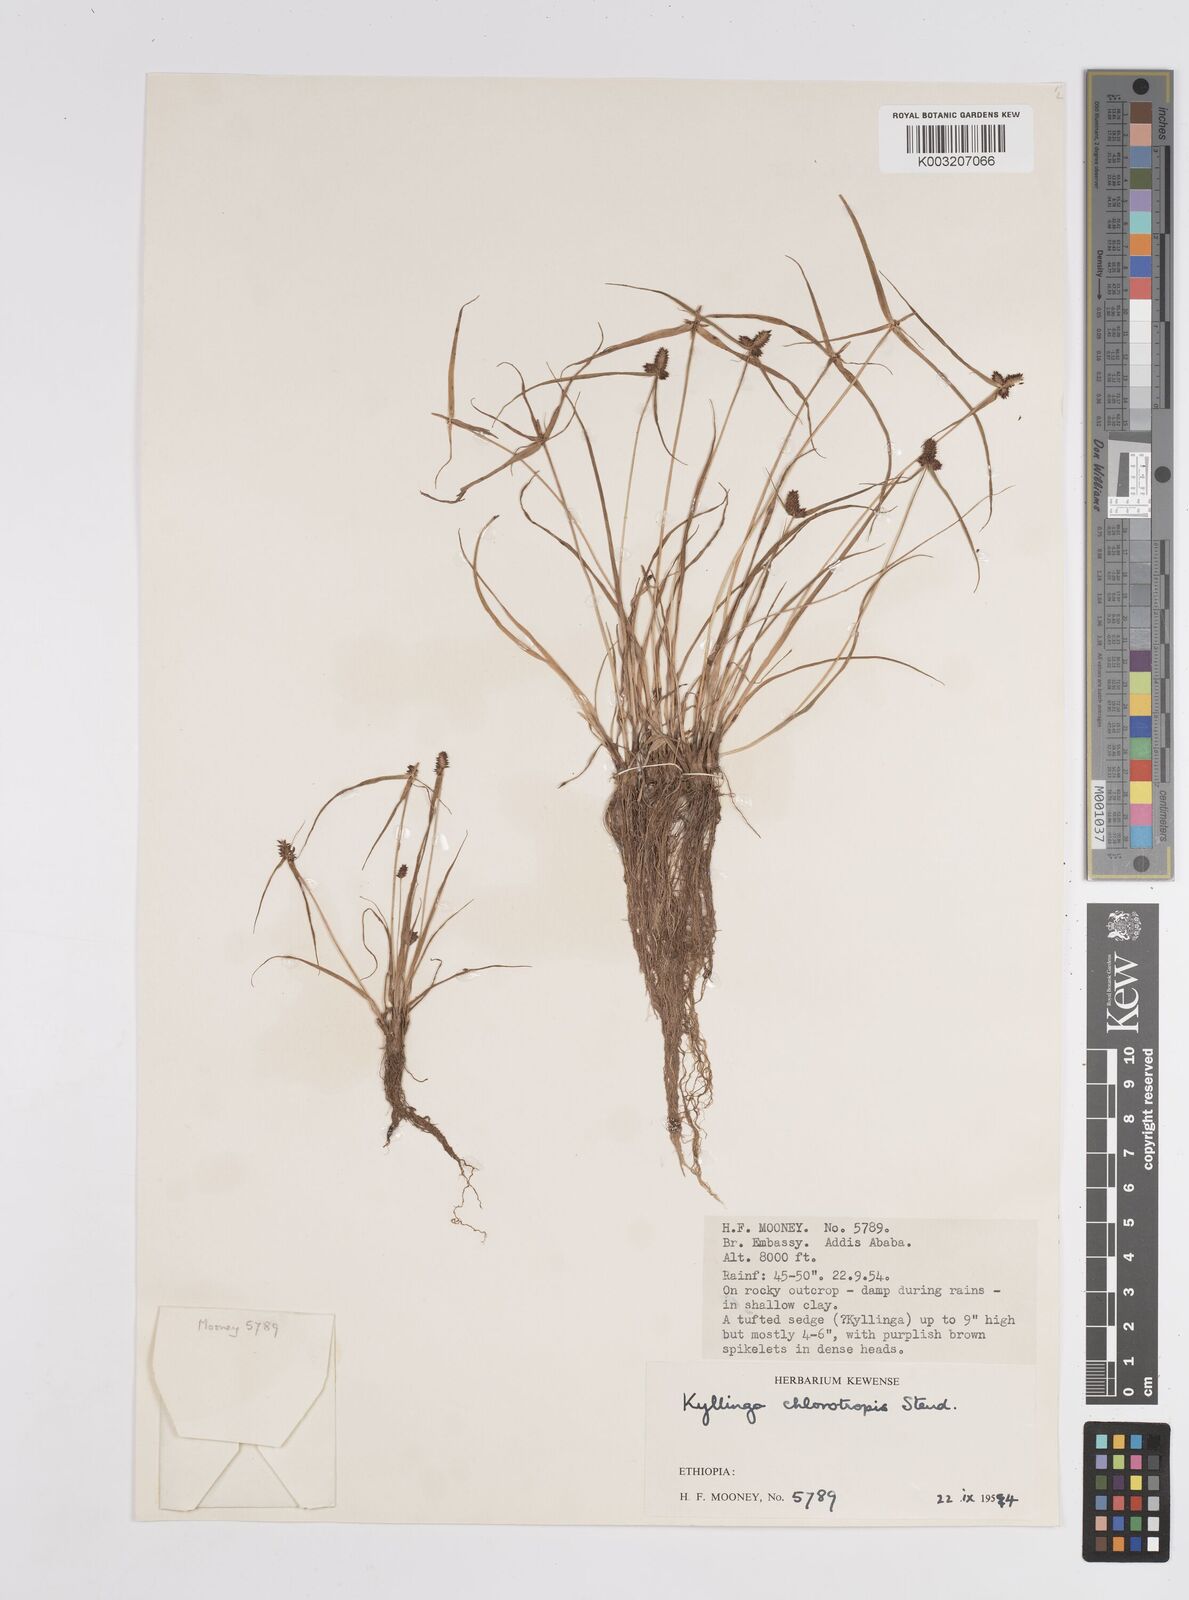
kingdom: Plantae
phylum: Tracheophyta
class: Liliopsida
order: Poales
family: Cyperaceae
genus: Cyperus
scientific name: Cyperus chlorotropis
